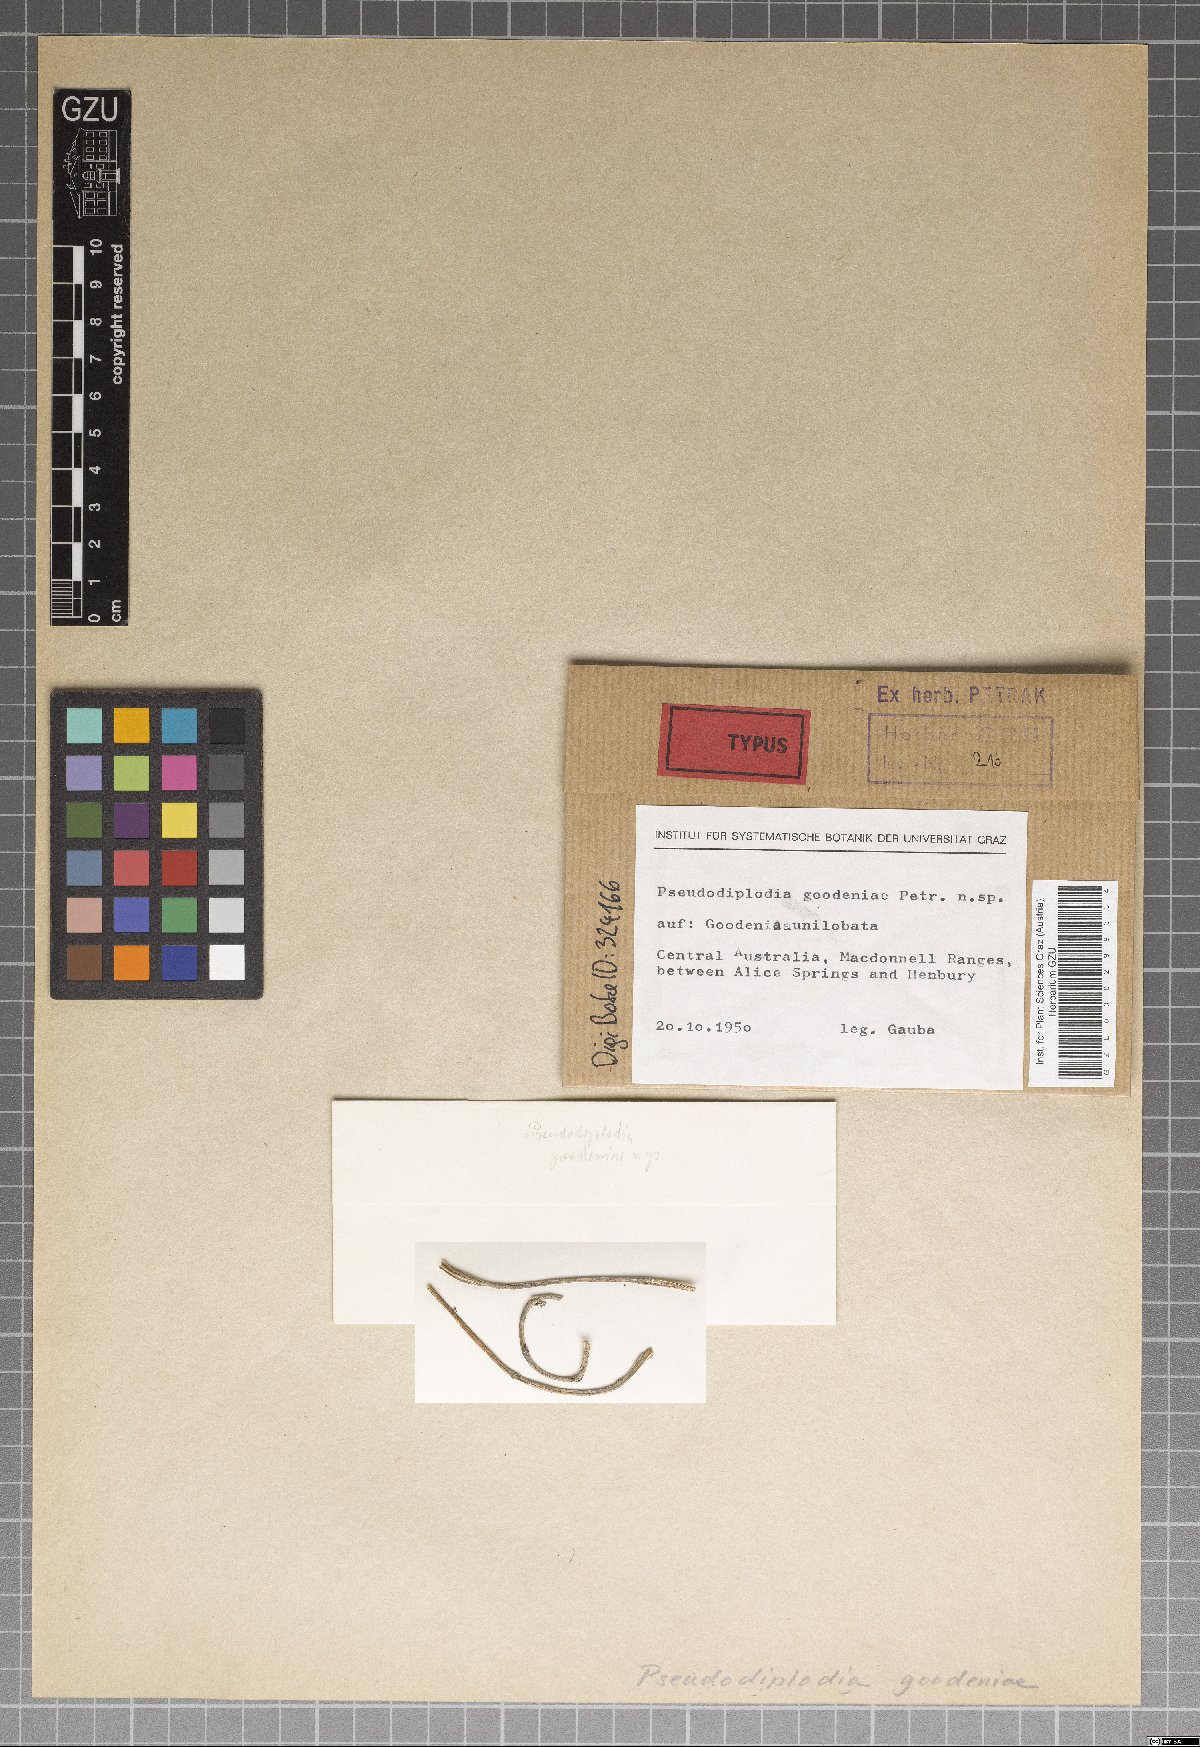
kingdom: Fungi
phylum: Ascomycota
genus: Pseudodiplodia
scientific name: Pseudodiplodia goodeniae
